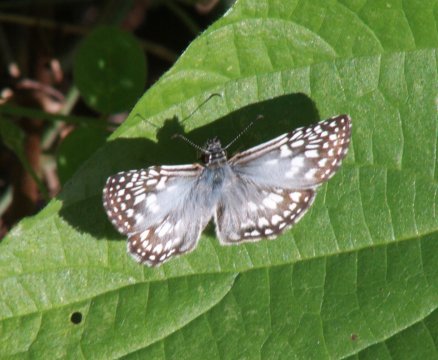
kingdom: Animalia
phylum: Arthropoda
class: Insecta
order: Lepidoptera
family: Hesperiidae
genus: Pyrgus
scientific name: Pyrgus oileus
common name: Orcus Checkered-Skipper
